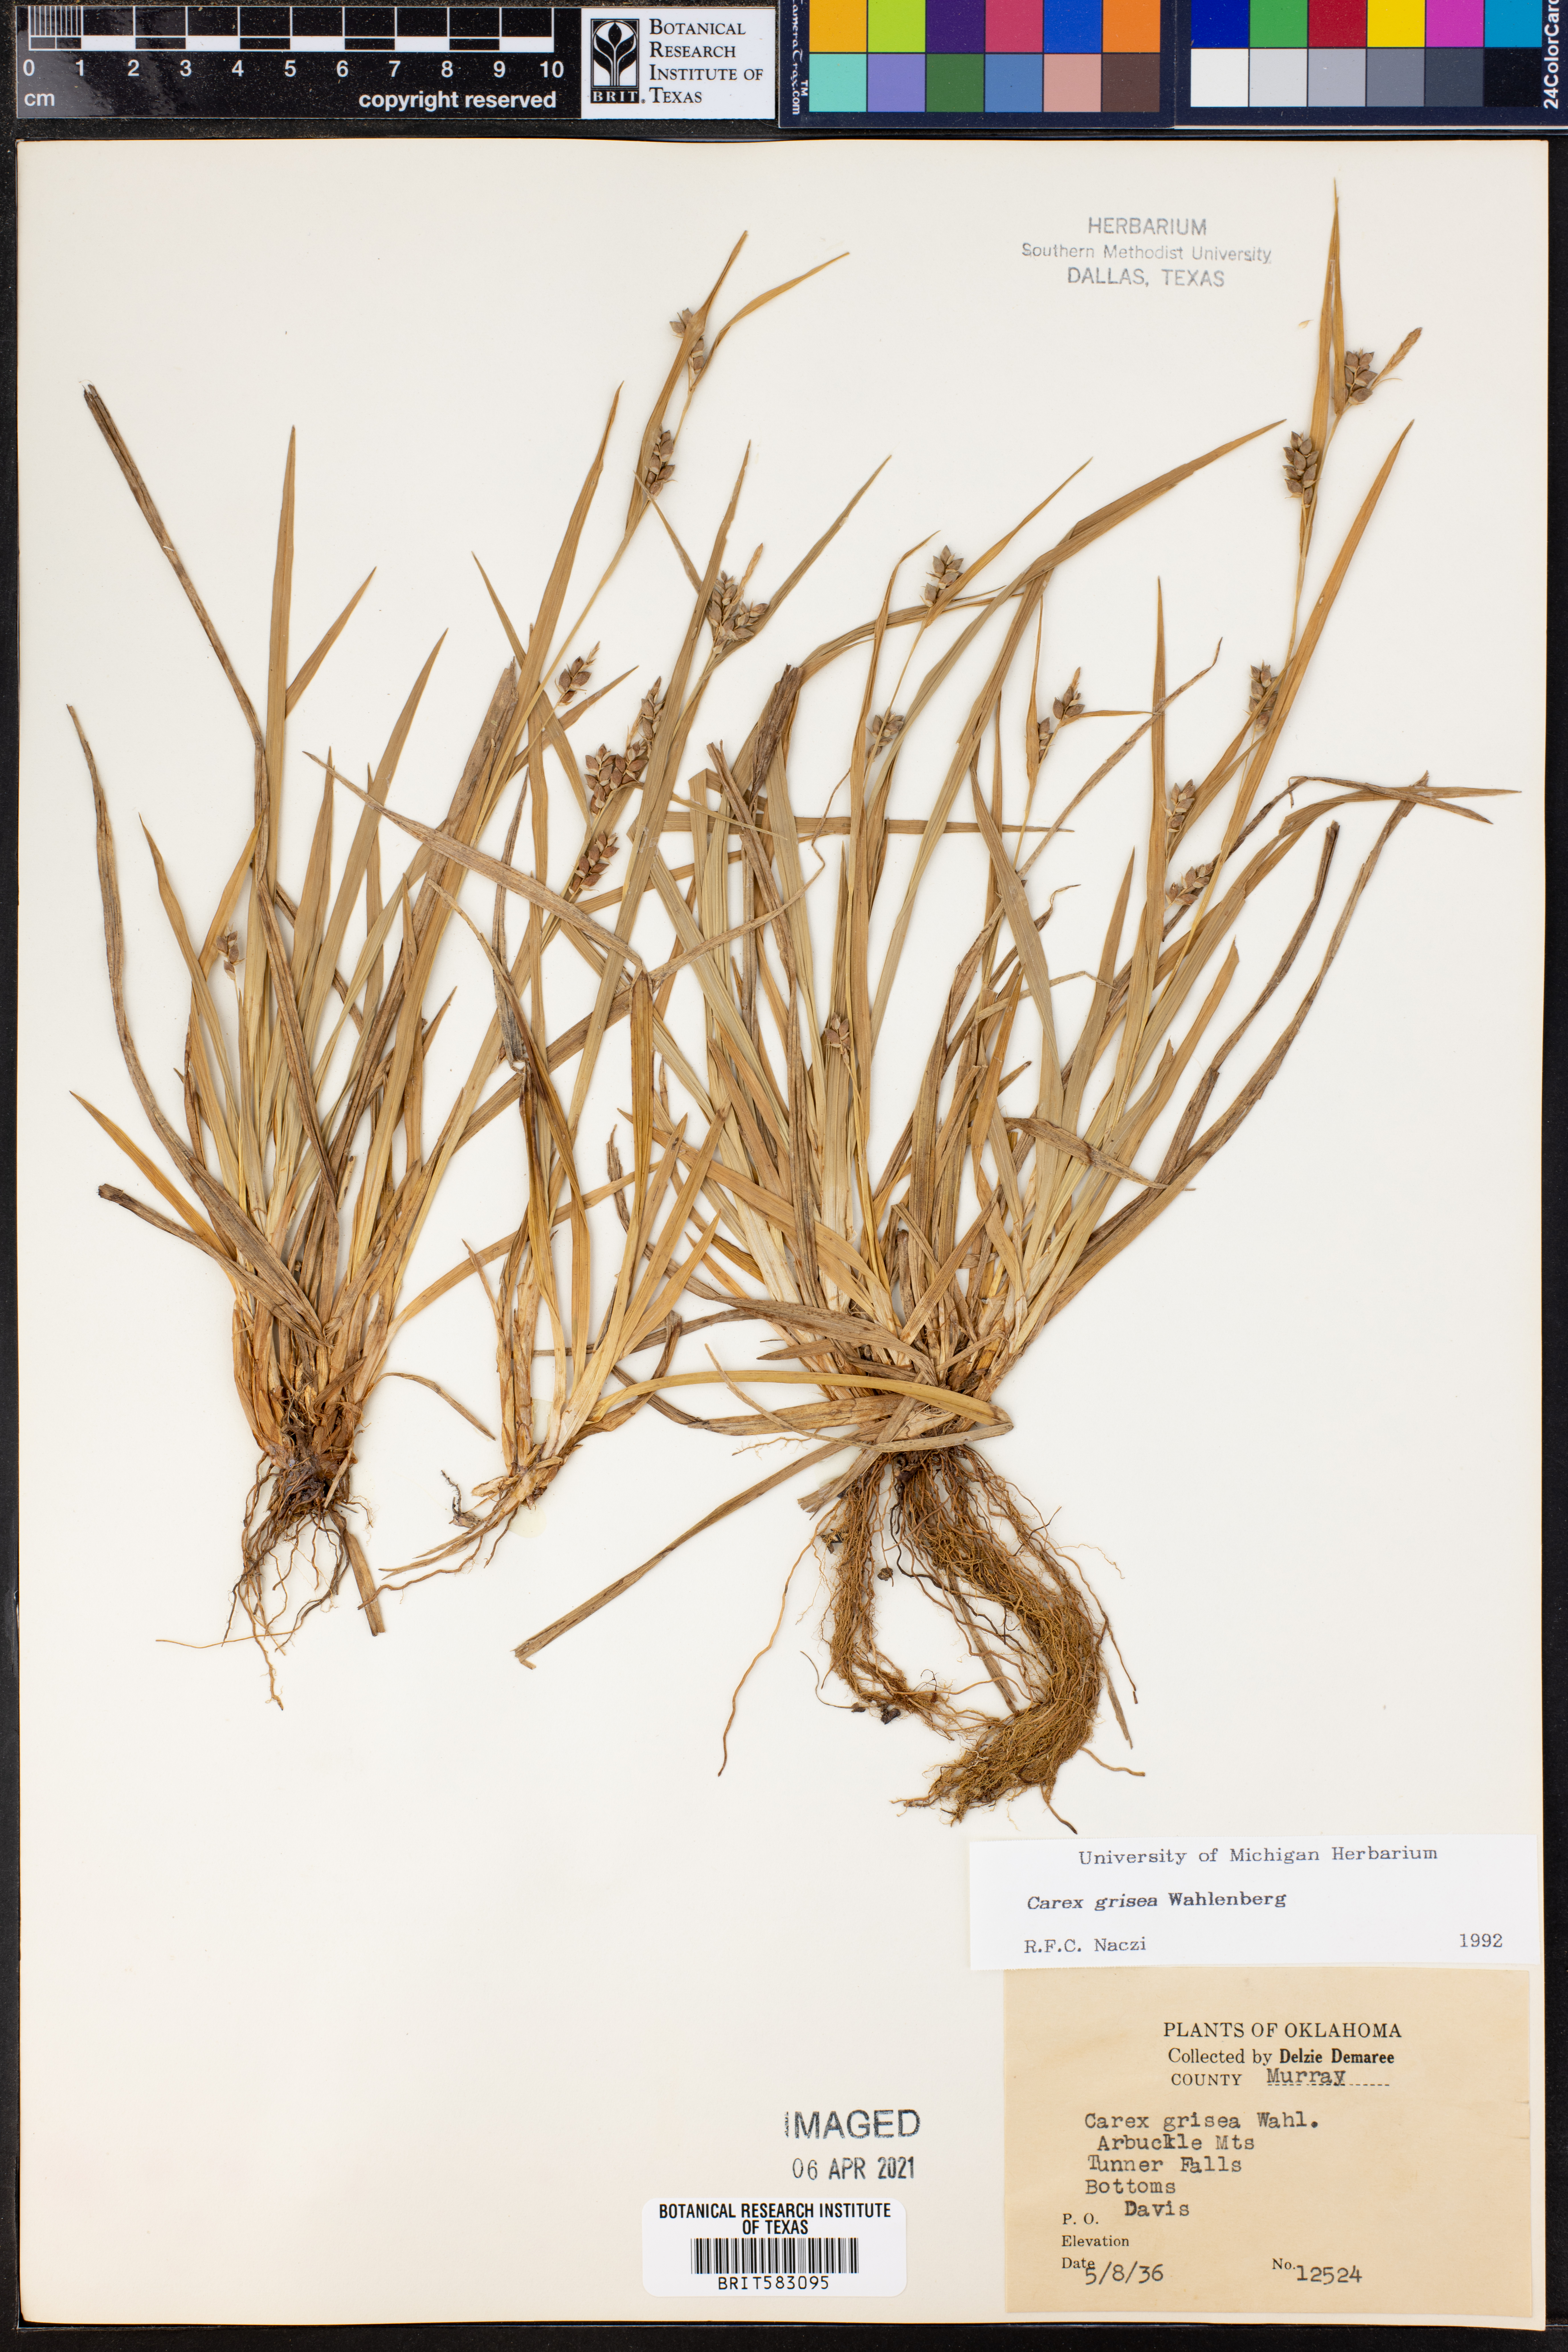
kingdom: Plantae
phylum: Tracheophyta
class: Liliopsida
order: Poales
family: Cyperaceae
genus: Carex
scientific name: Carex grisea
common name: Eastern narrow-leaved sedge
